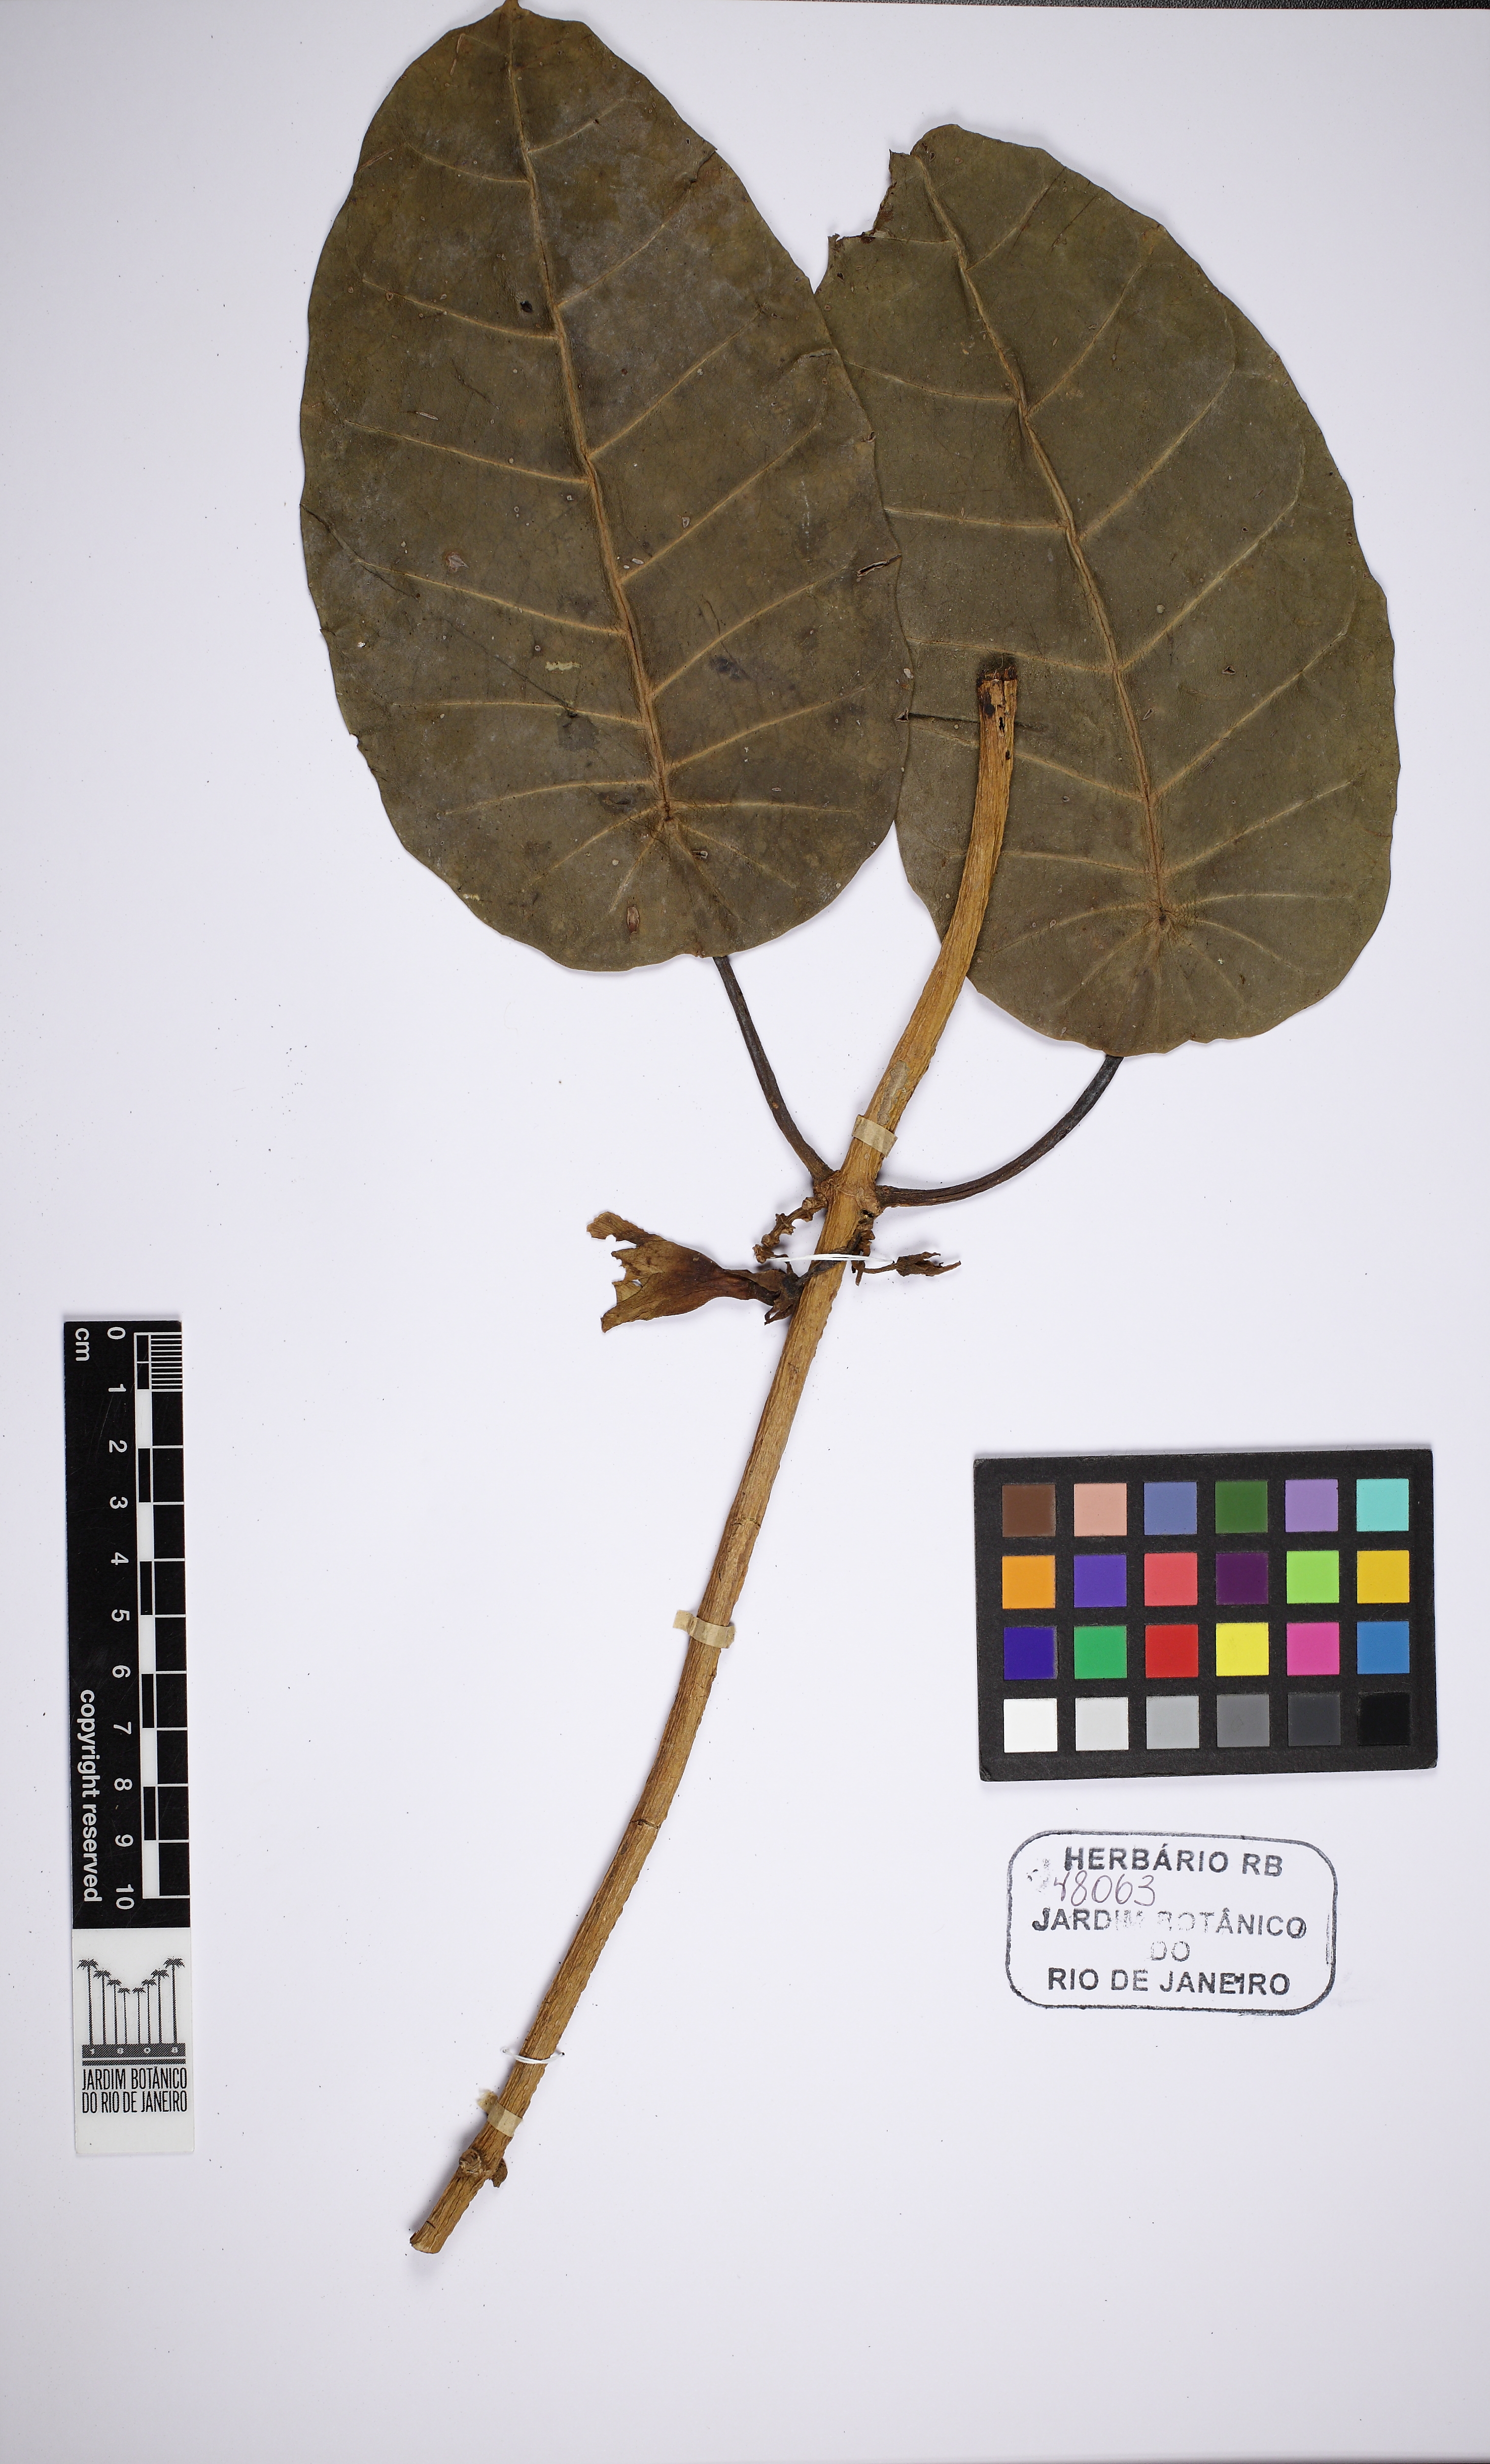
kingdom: Plantae
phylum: Tracheophyta
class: Magnoliopsida
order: Gentianales
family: Apocynaceae
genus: Macropharynx
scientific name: Macropharynx peltata
